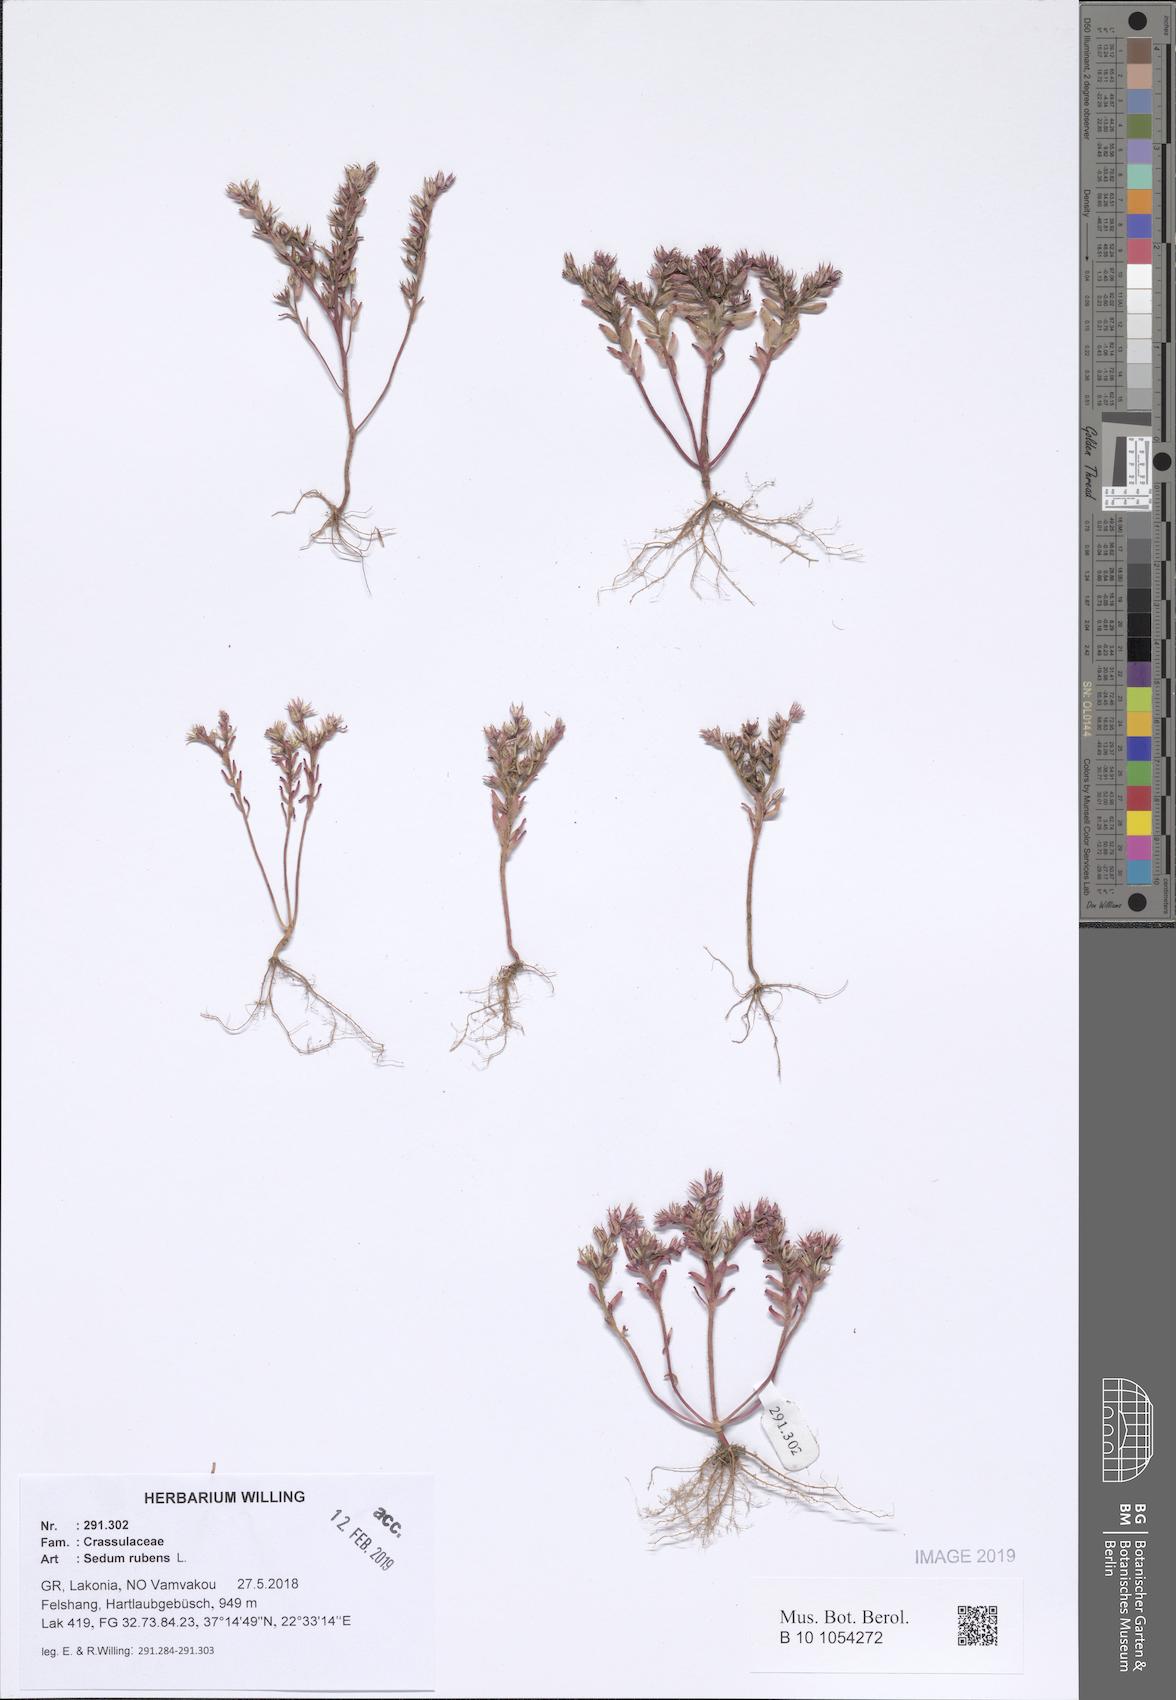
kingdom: Plantae
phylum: Tracheophyta
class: Magnoliopsida
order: Saxifragales
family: Crassulaceae
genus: Sedum
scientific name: Sedum rubens
